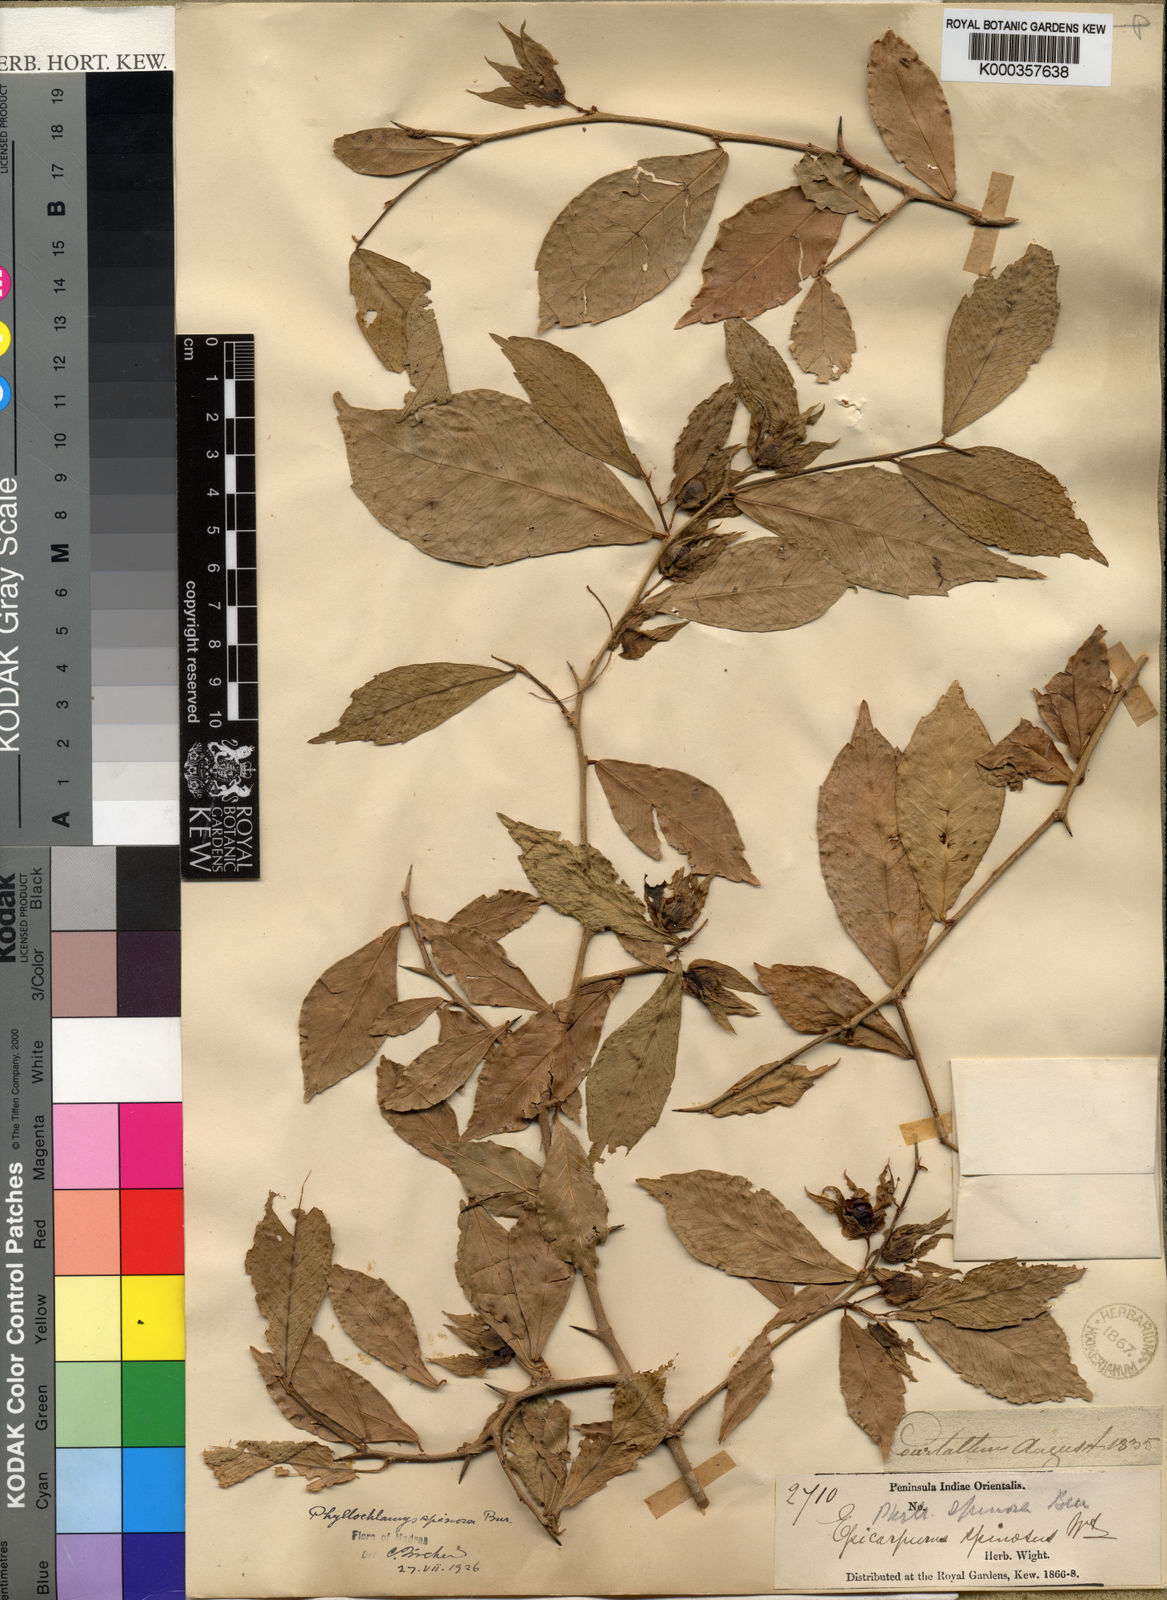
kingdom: Plantae
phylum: Tracheophyta
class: Magnoliopsida
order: Rosales
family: Moraceae
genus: Taxotrophis
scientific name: Taxotrophis taxoides
